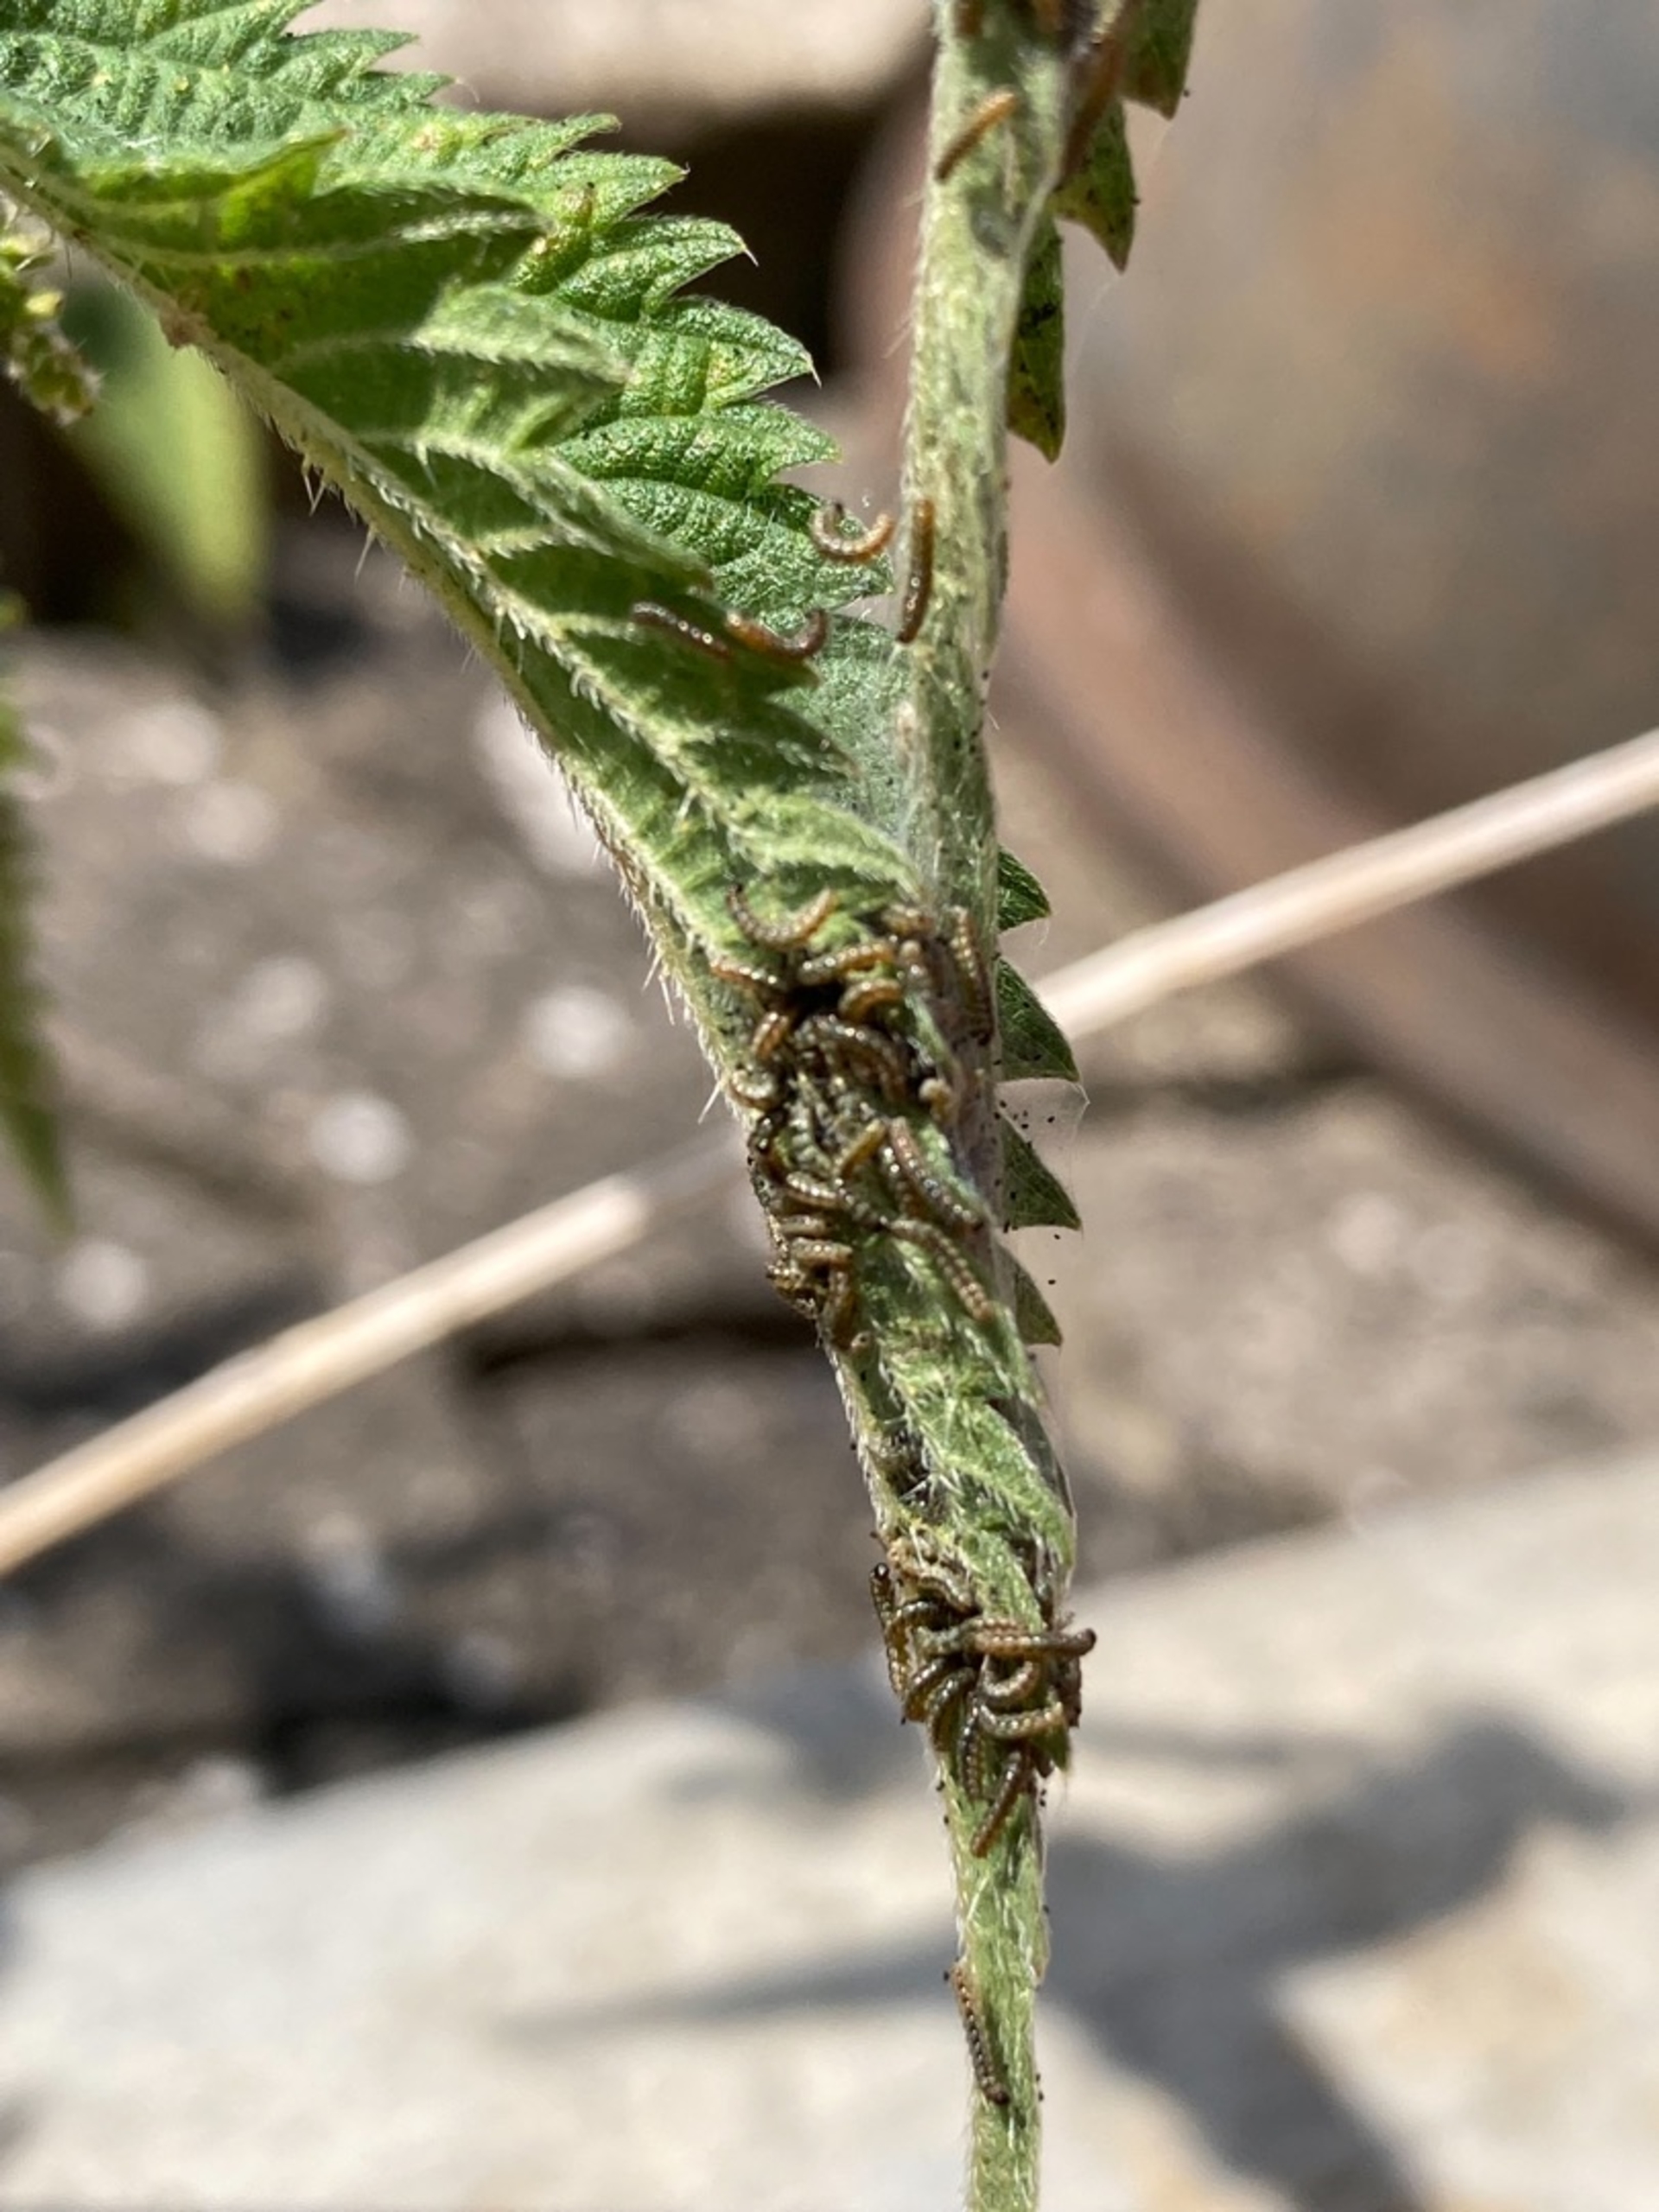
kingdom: Animalia
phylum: Arthropoda
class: Insecta
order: Lepidoptera
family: Nymphalidae
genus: Aglais
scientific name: Aglais urticae
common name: Nældens takvinge
